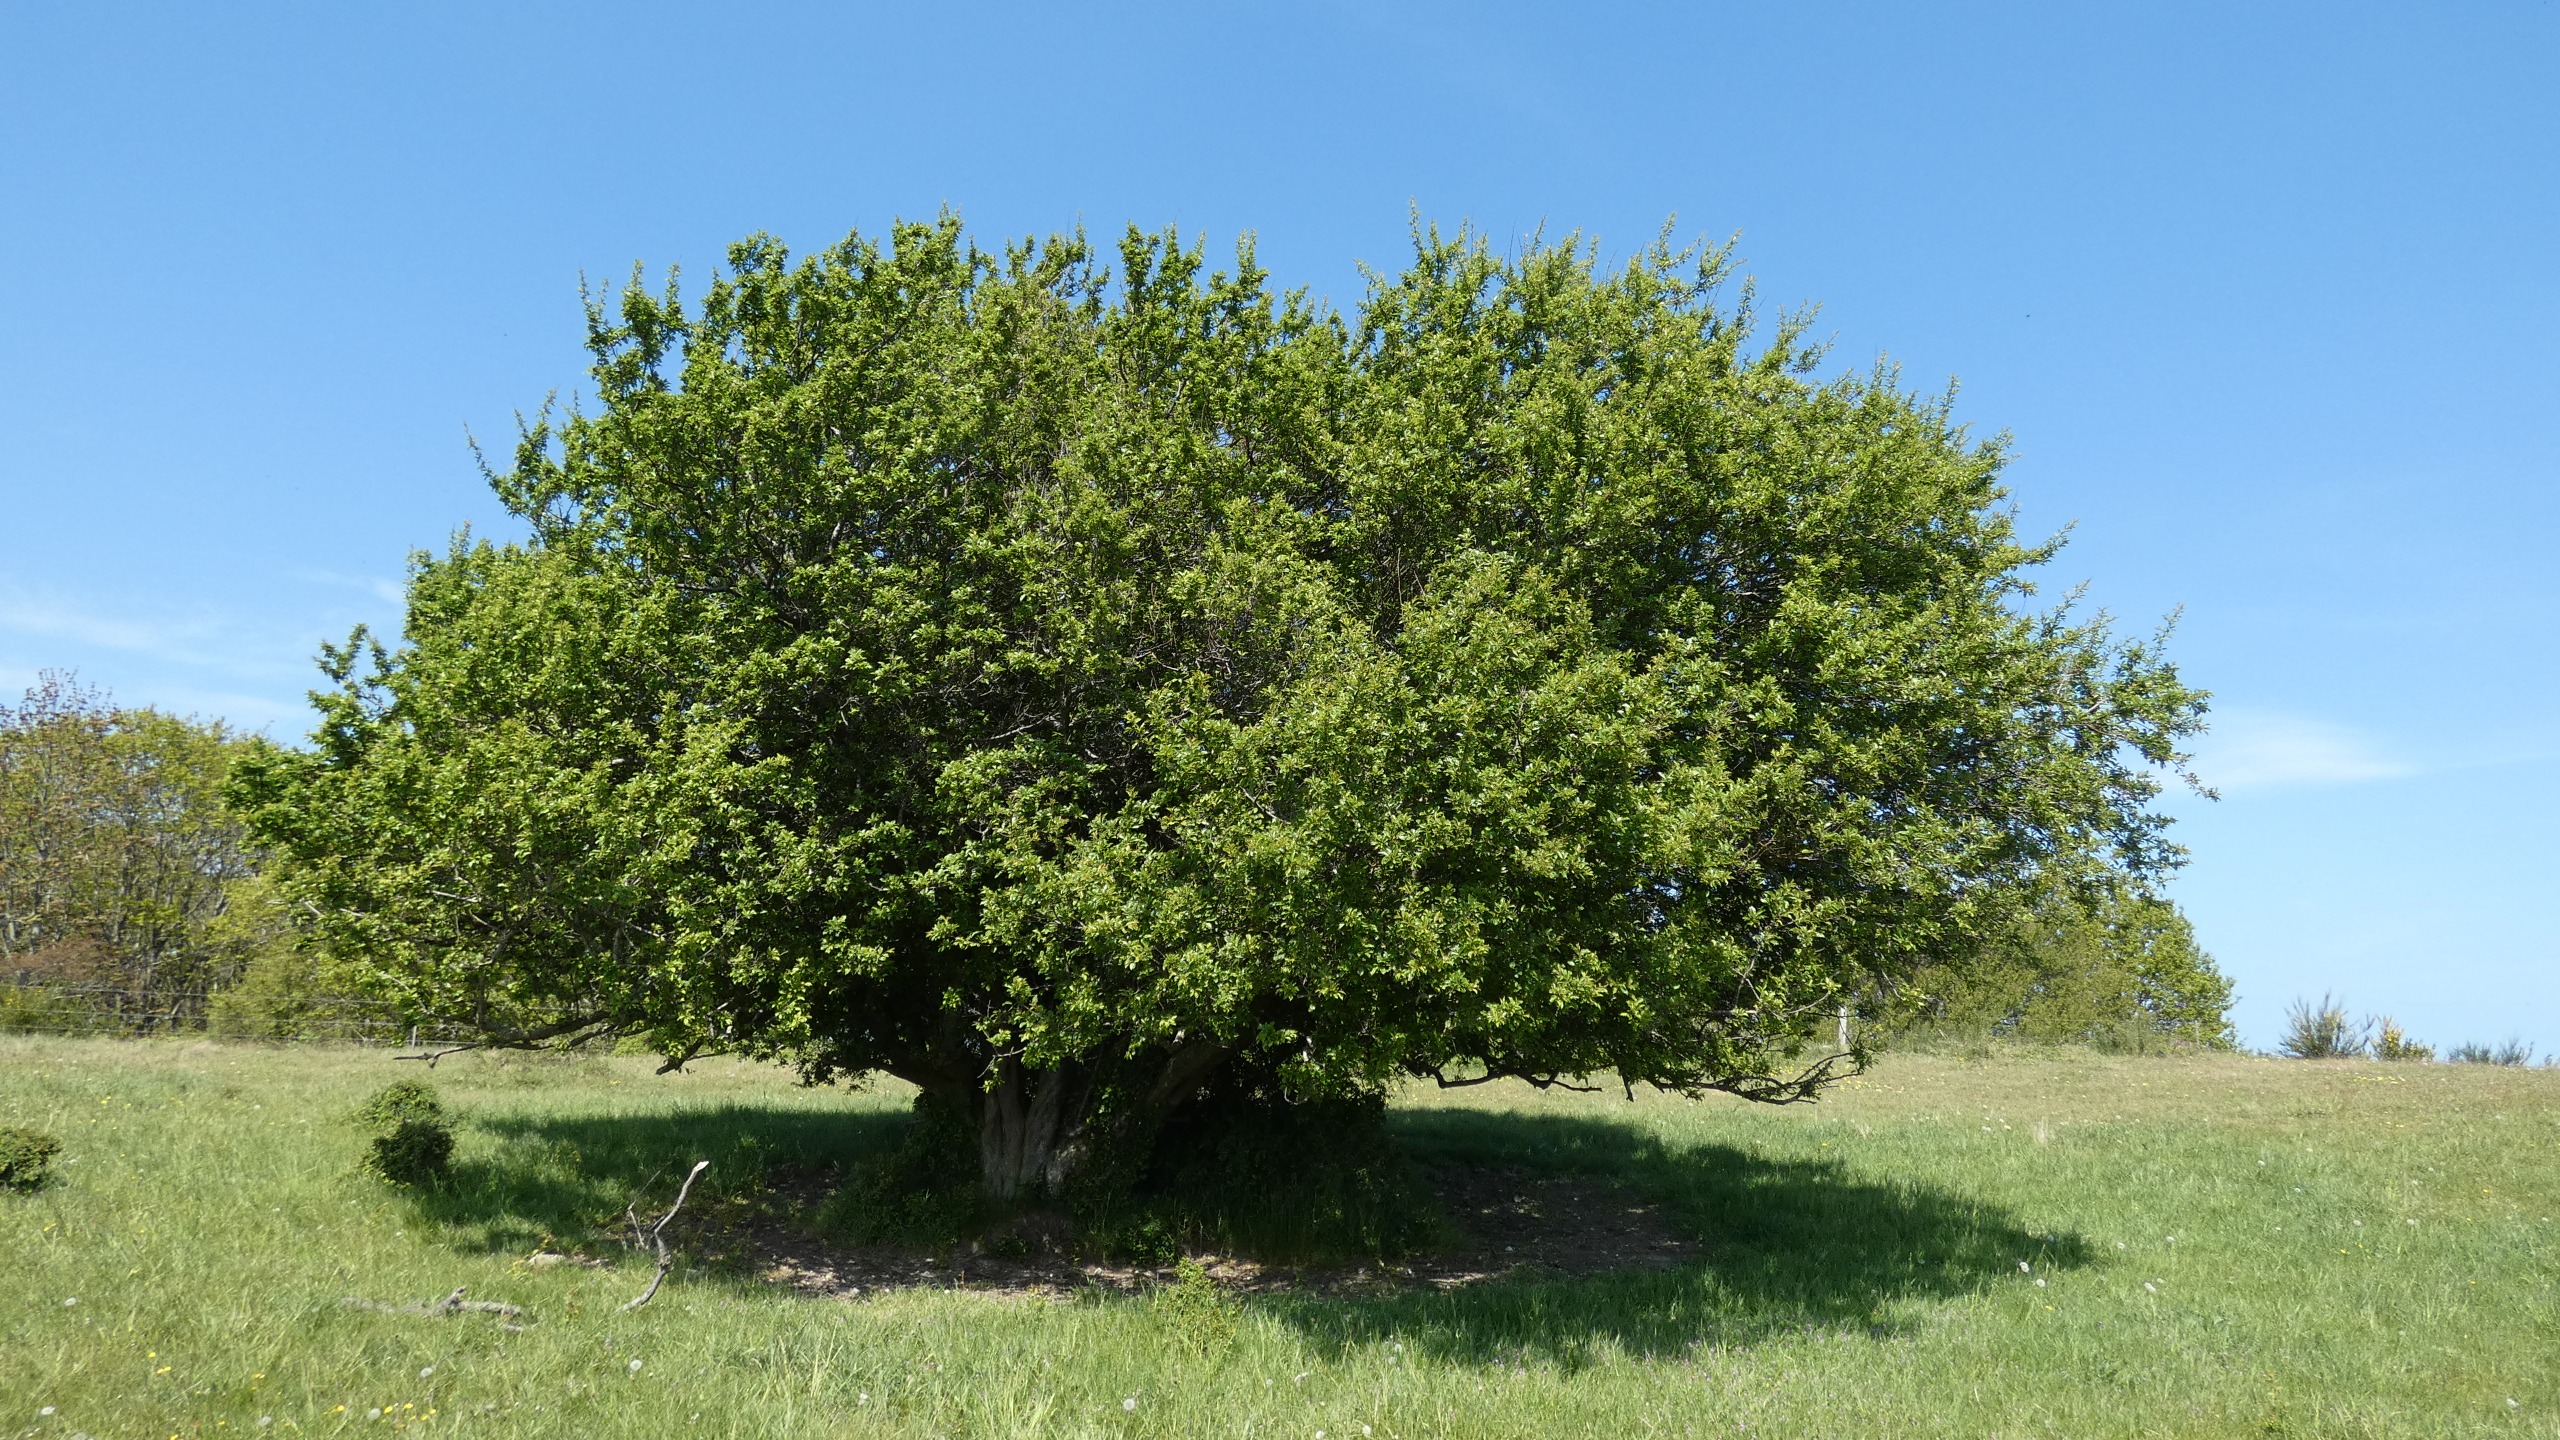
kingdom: Plantae
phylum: Tracheophyta
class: Magnoliopsida
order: Rosales
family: Rosaceae
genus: Prunus
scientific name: Prunus avium
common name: Fugle-kirsebær
